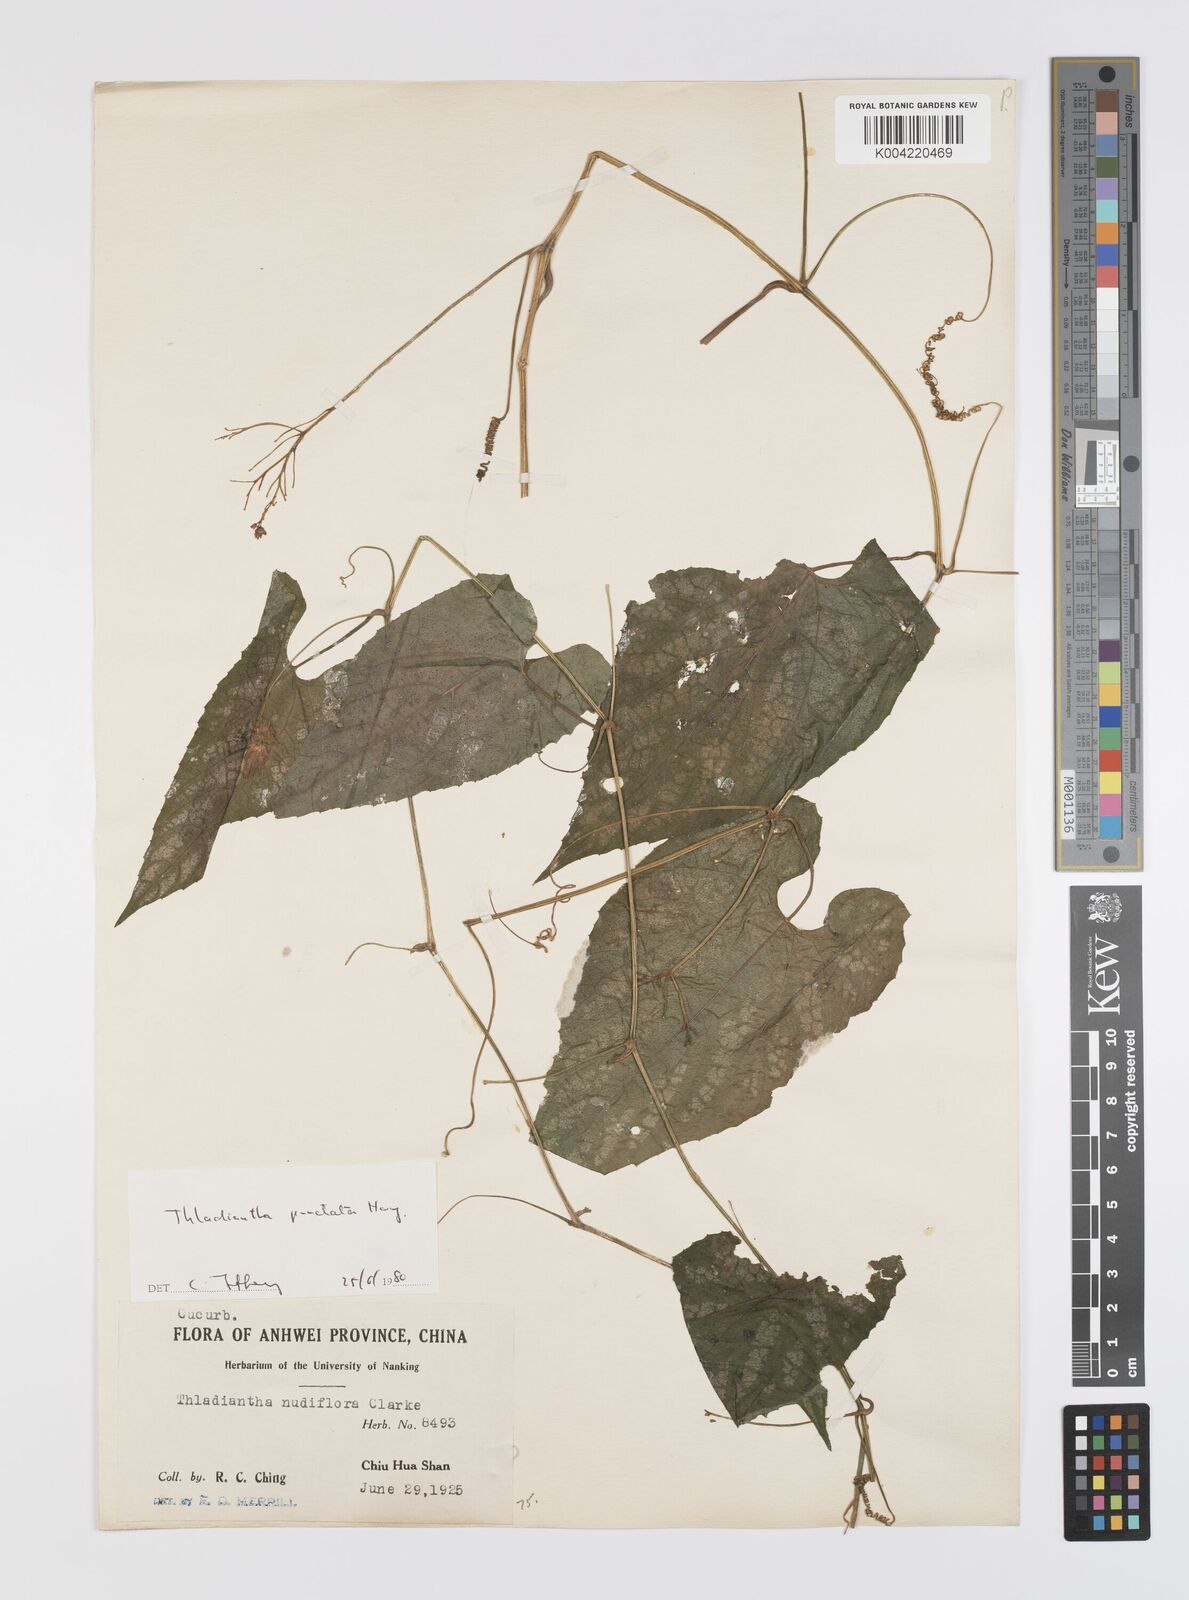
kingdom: Plantae
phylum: Tracheophyta
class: Magnoliopsida
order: Cucurbitales
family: Cucurbitaceae
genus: Thladiantha
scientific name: Thladiantha punctata
